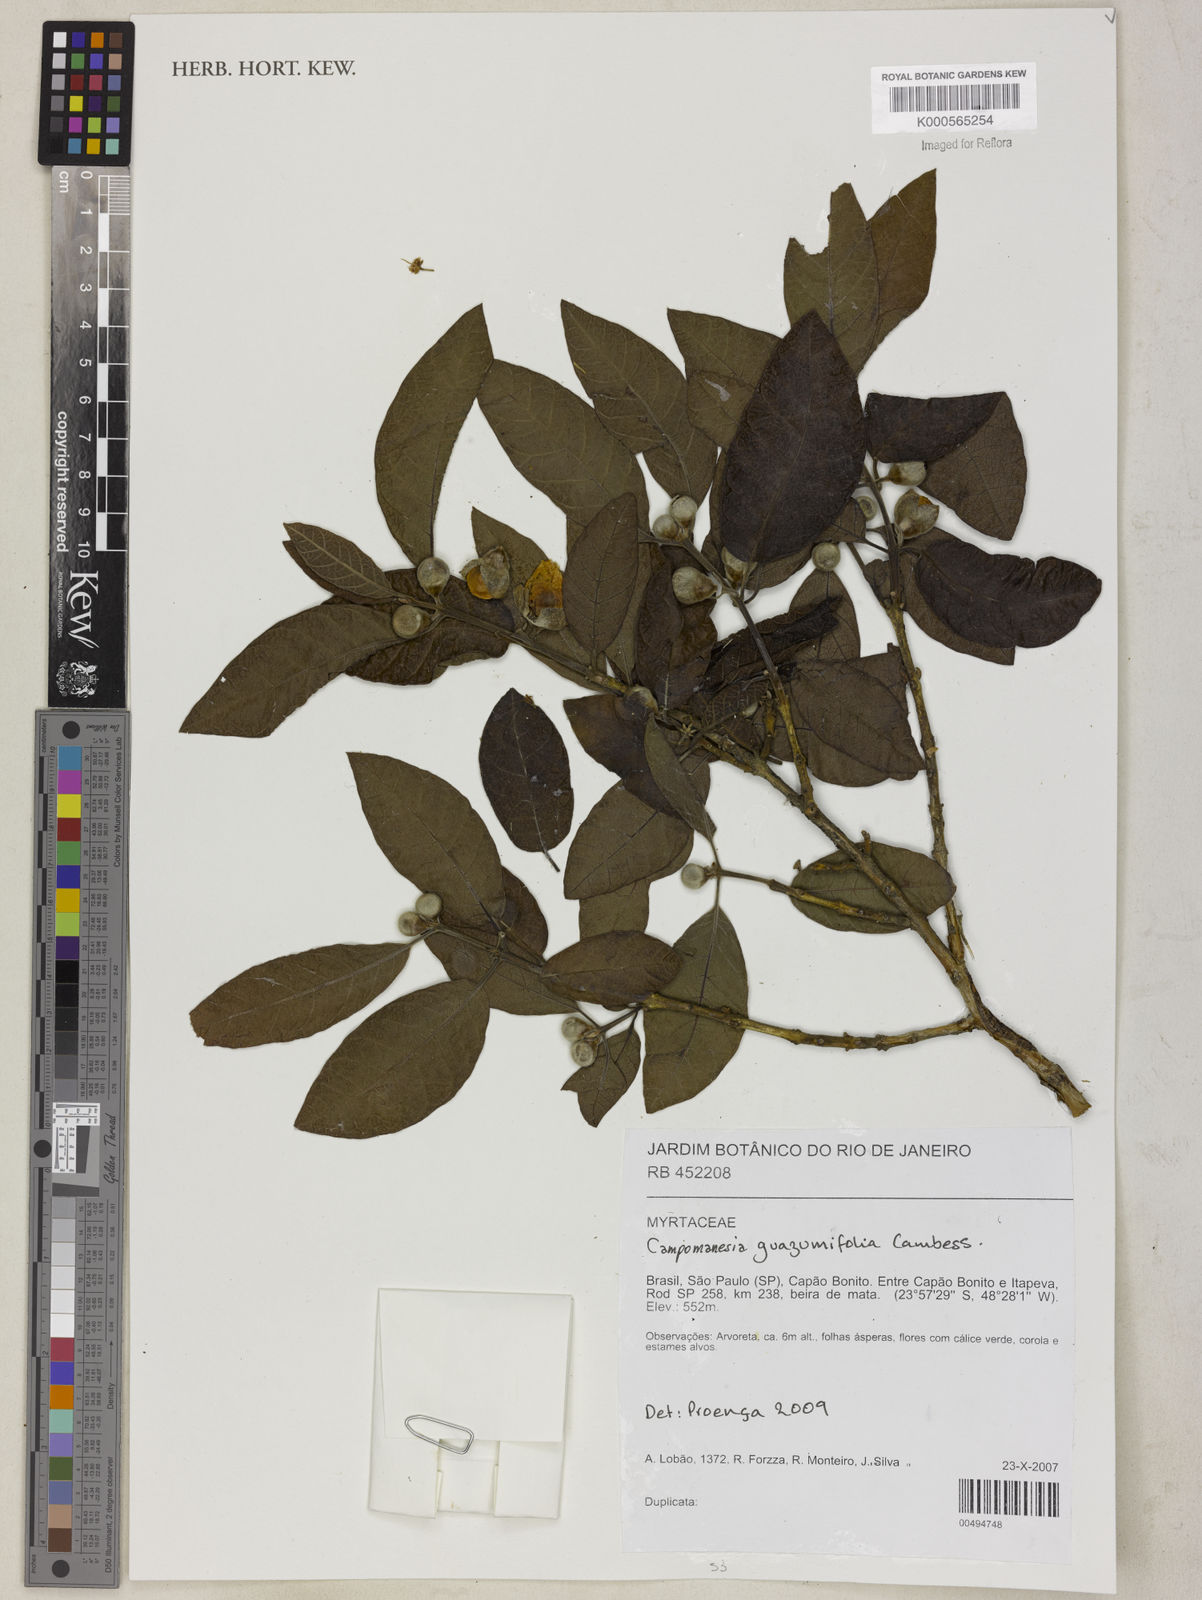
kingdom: Plantae
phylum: Tracheophyta
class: Magnoliopsida
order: Myrtales
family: Myrtaceae
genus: Campomanesia
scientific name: Campomanesia guazumifolia
